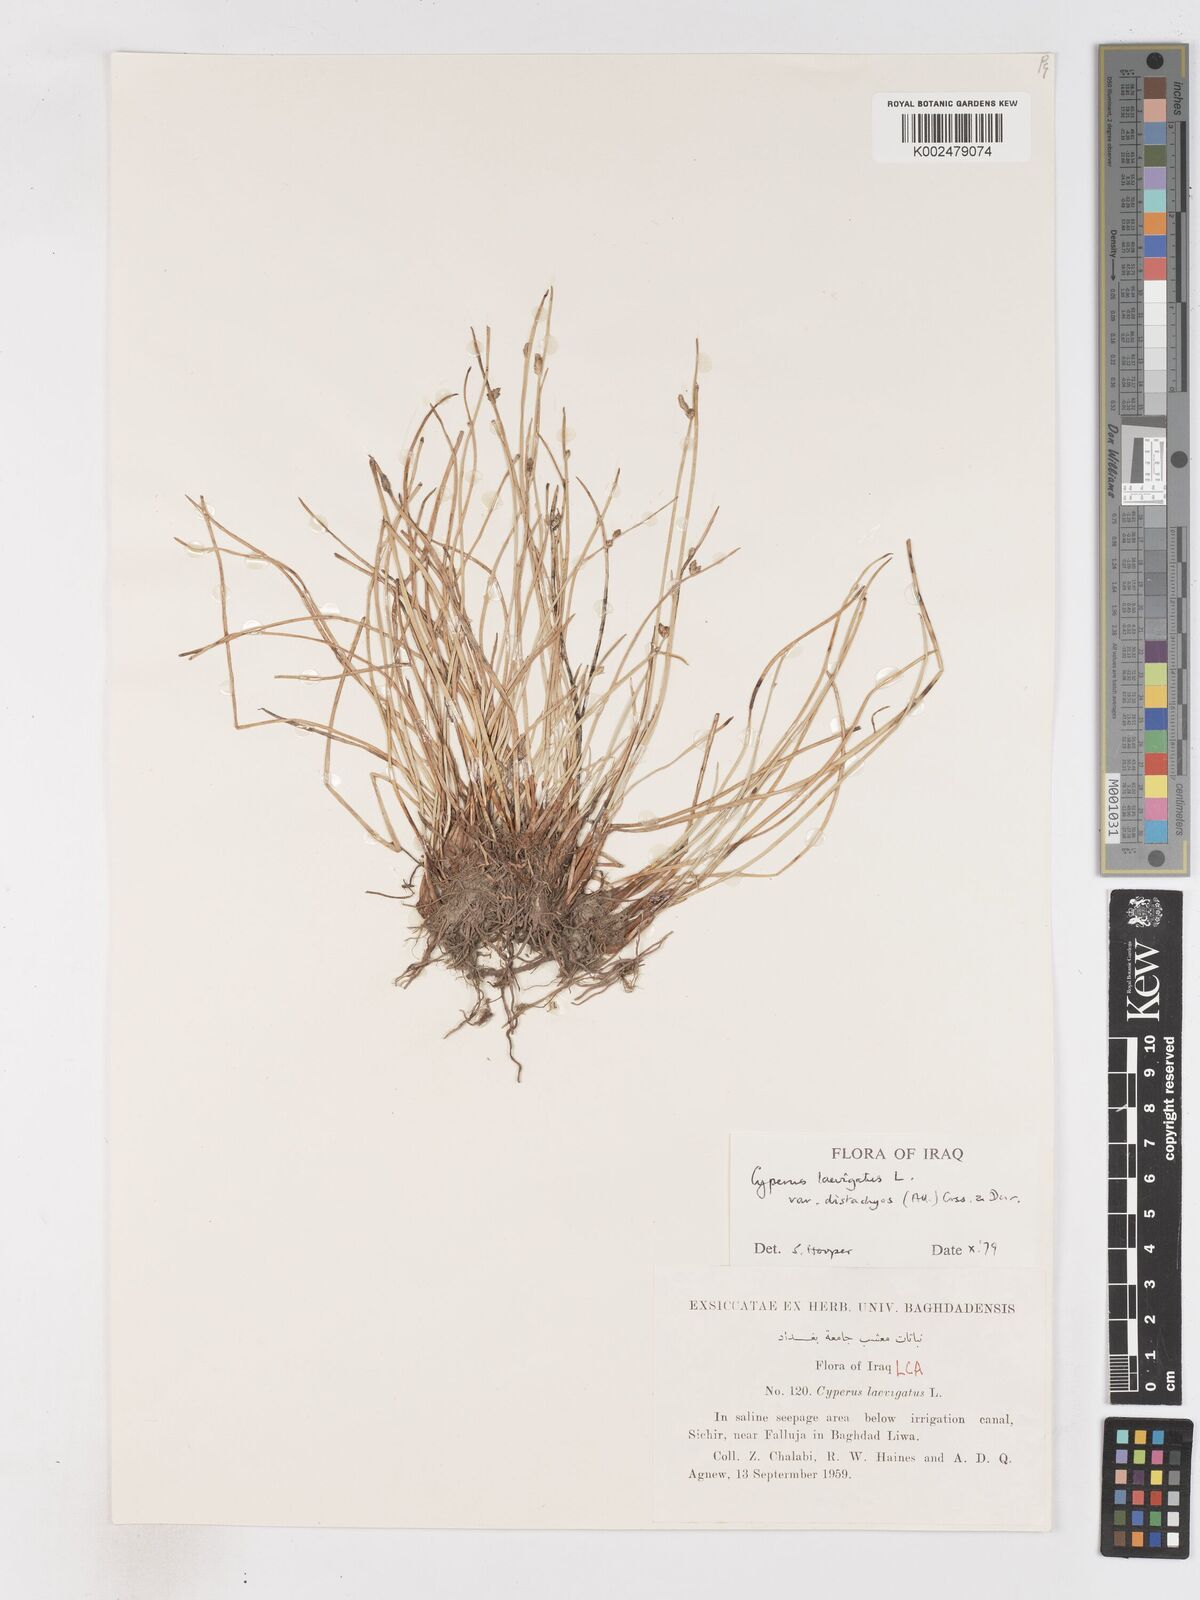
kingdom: Plantae
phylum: Tracheophyta
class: Liliopsida
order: Poales
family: Cyperaceae
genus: Cyperus
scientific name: Cyperus laevigatus
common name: Smooth flat sedge
